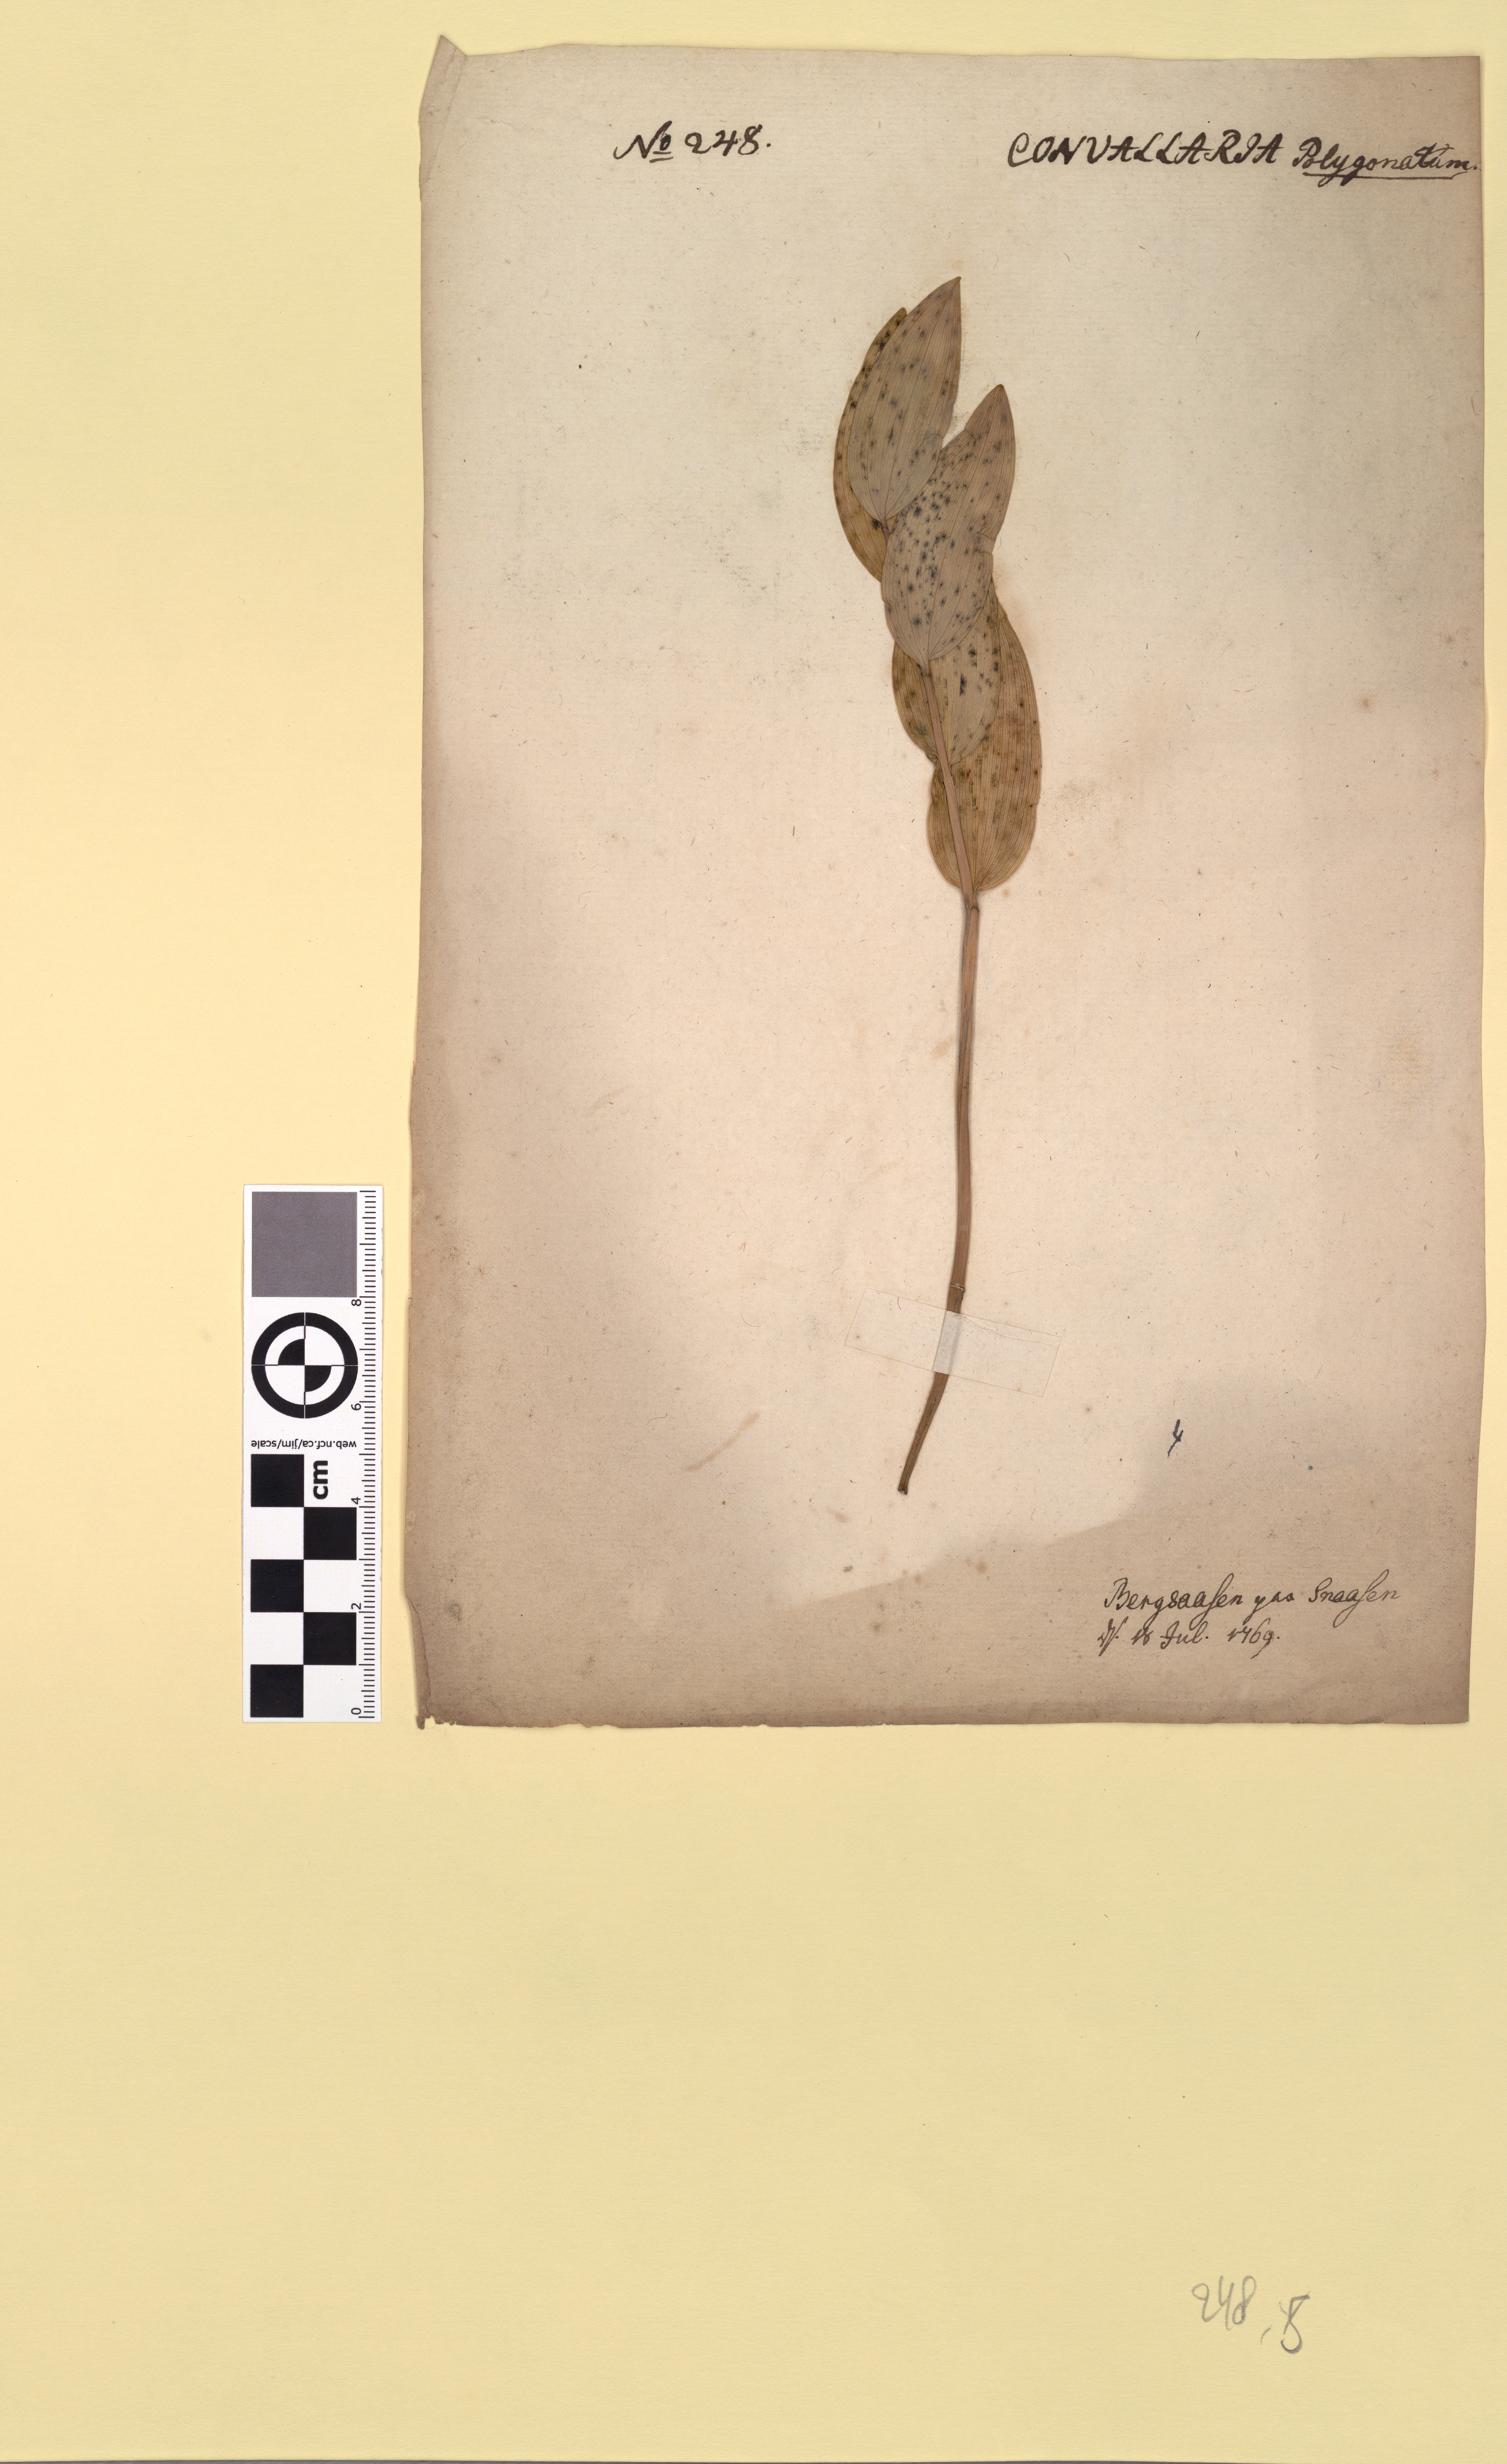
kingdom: Plantae
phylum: Tracheophyta
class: Liliopsida
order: Asparagales
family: Asparagaceae
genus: Polygonatum
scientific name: Polygonatum odoratum
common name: Angular solomon's-seal
